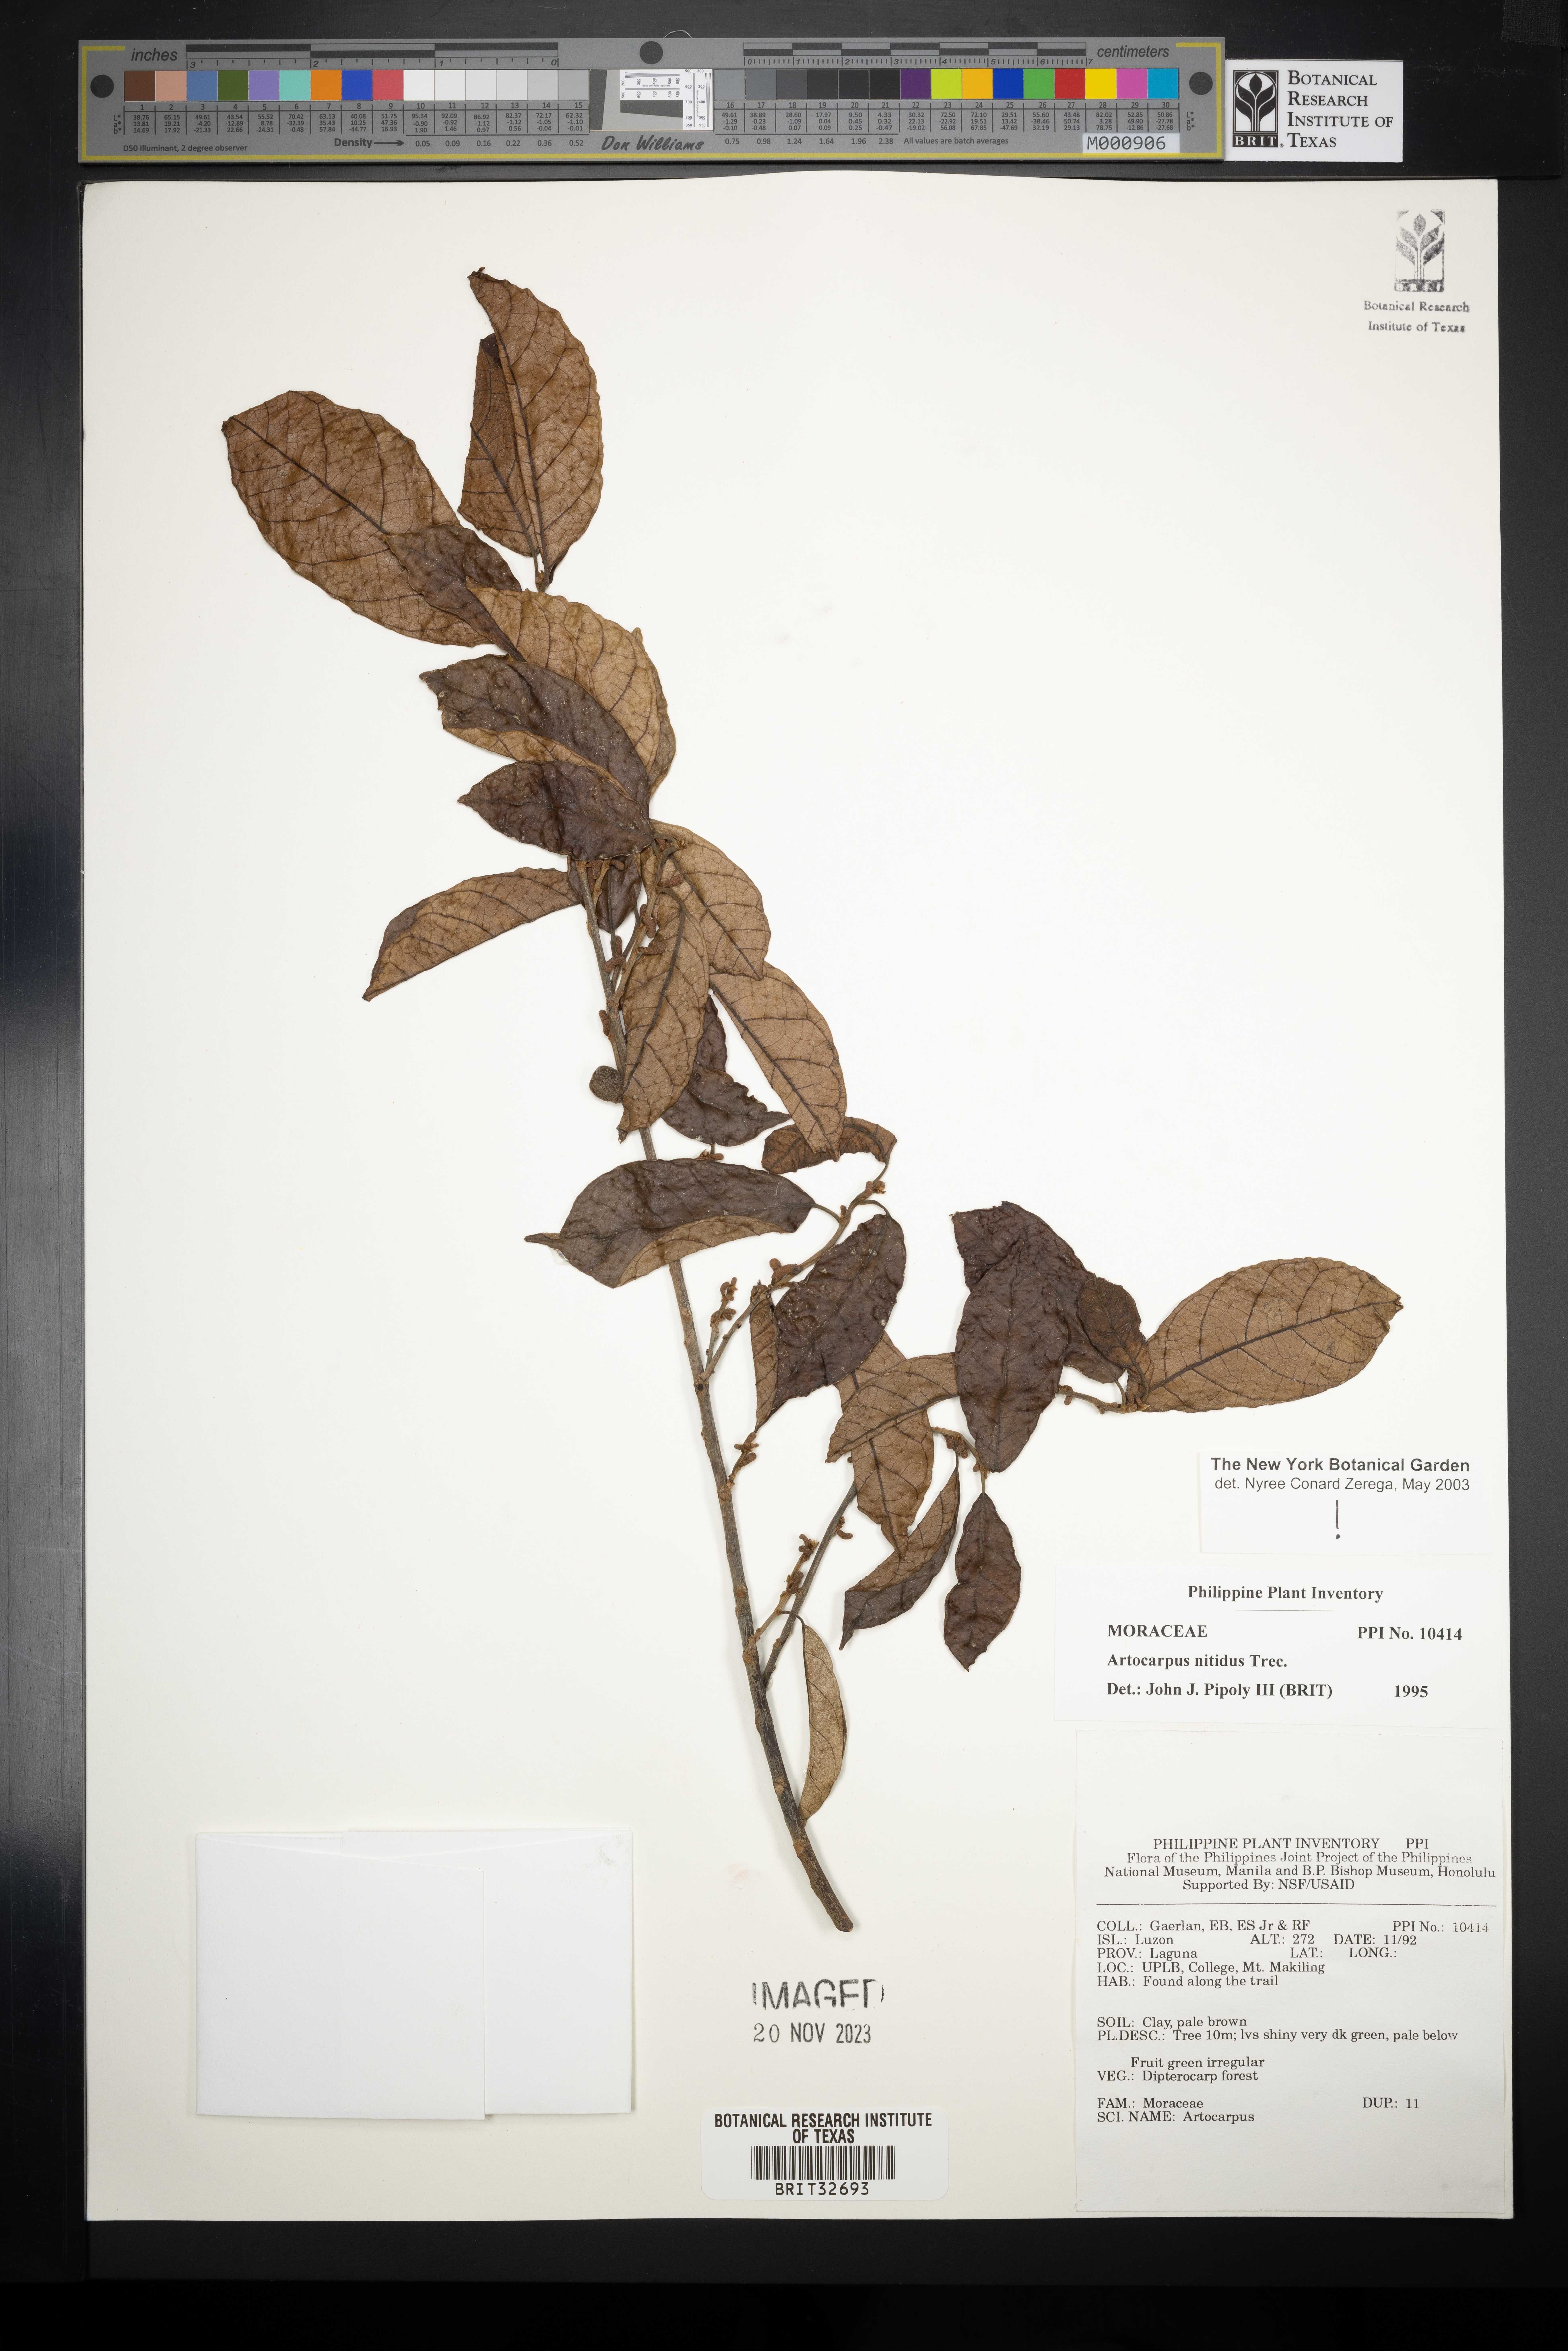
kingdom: Plantae
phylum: Tracheophyta
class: Magnoliopsida
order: Rosales
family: Moraceae
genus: Artocarpus
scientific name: Artocarpus lamellosus
